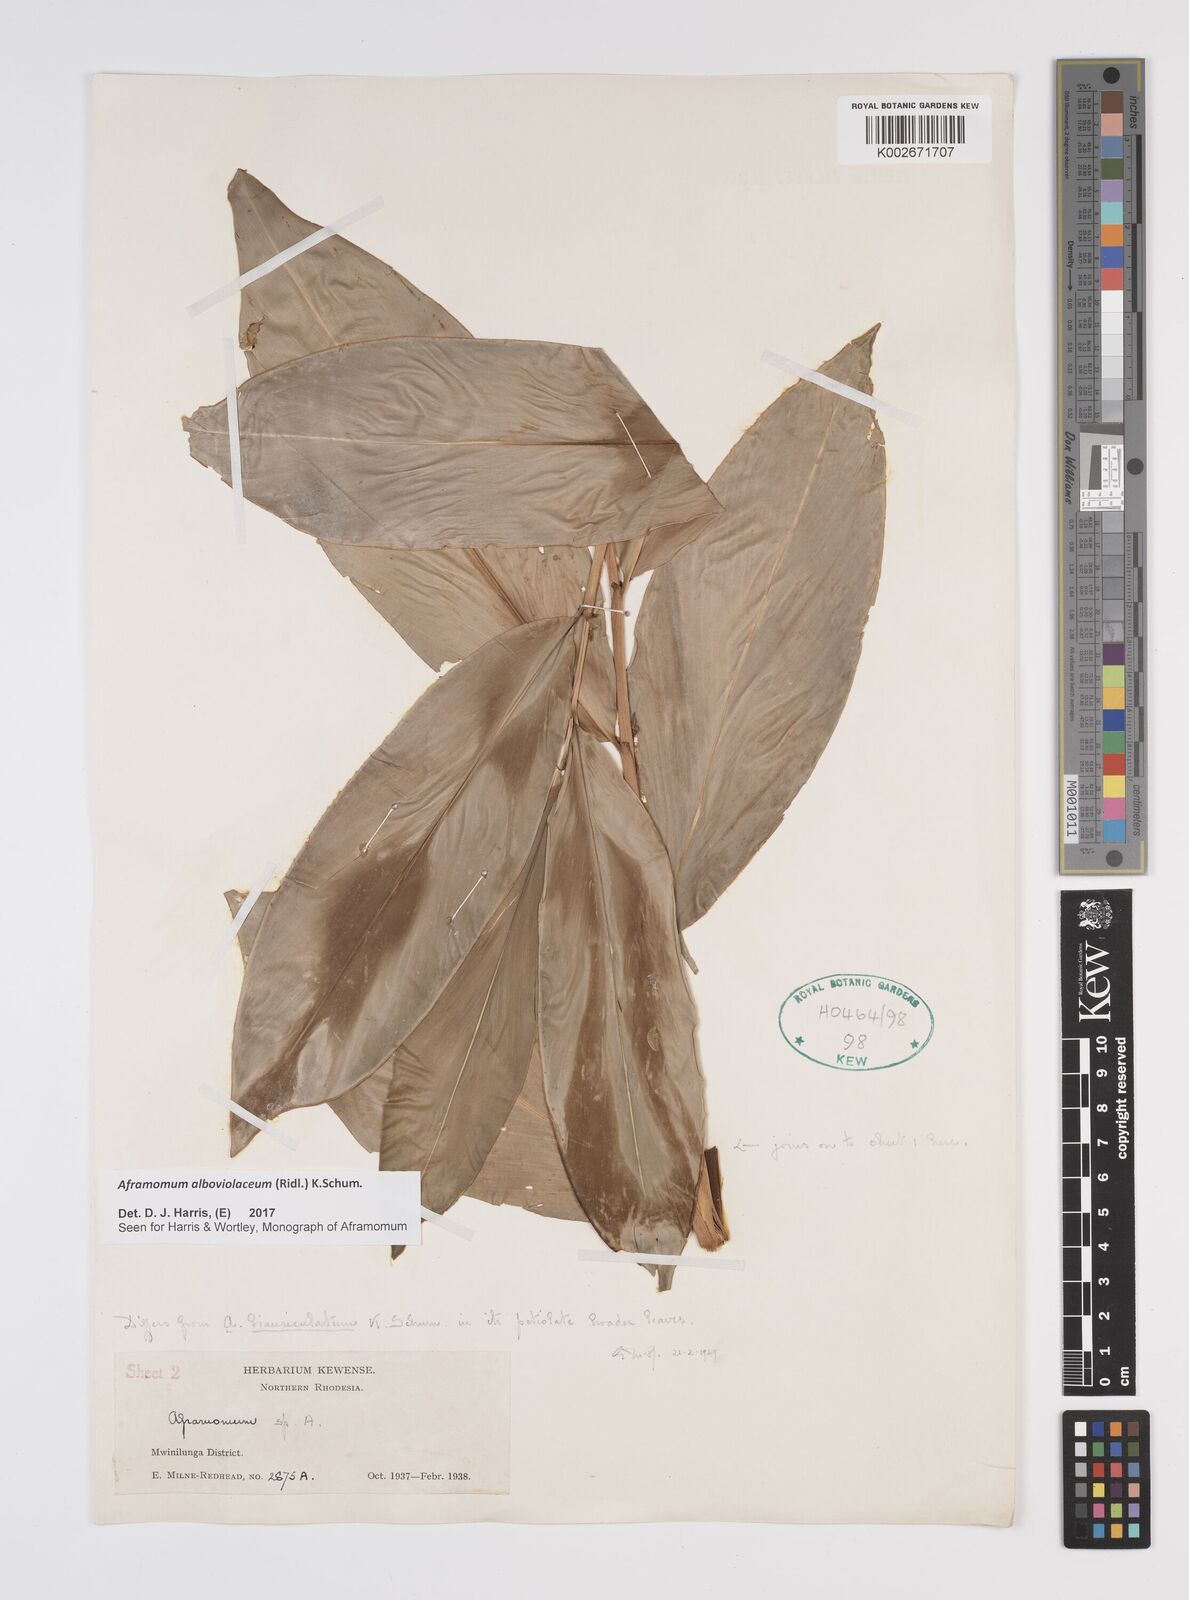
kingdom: Plantae
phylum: Tracheophyta
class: Liliopsida
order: Zingiberales
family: Zingiberaceae
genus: Aframomum
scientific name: Aframomum alboviolaceum
